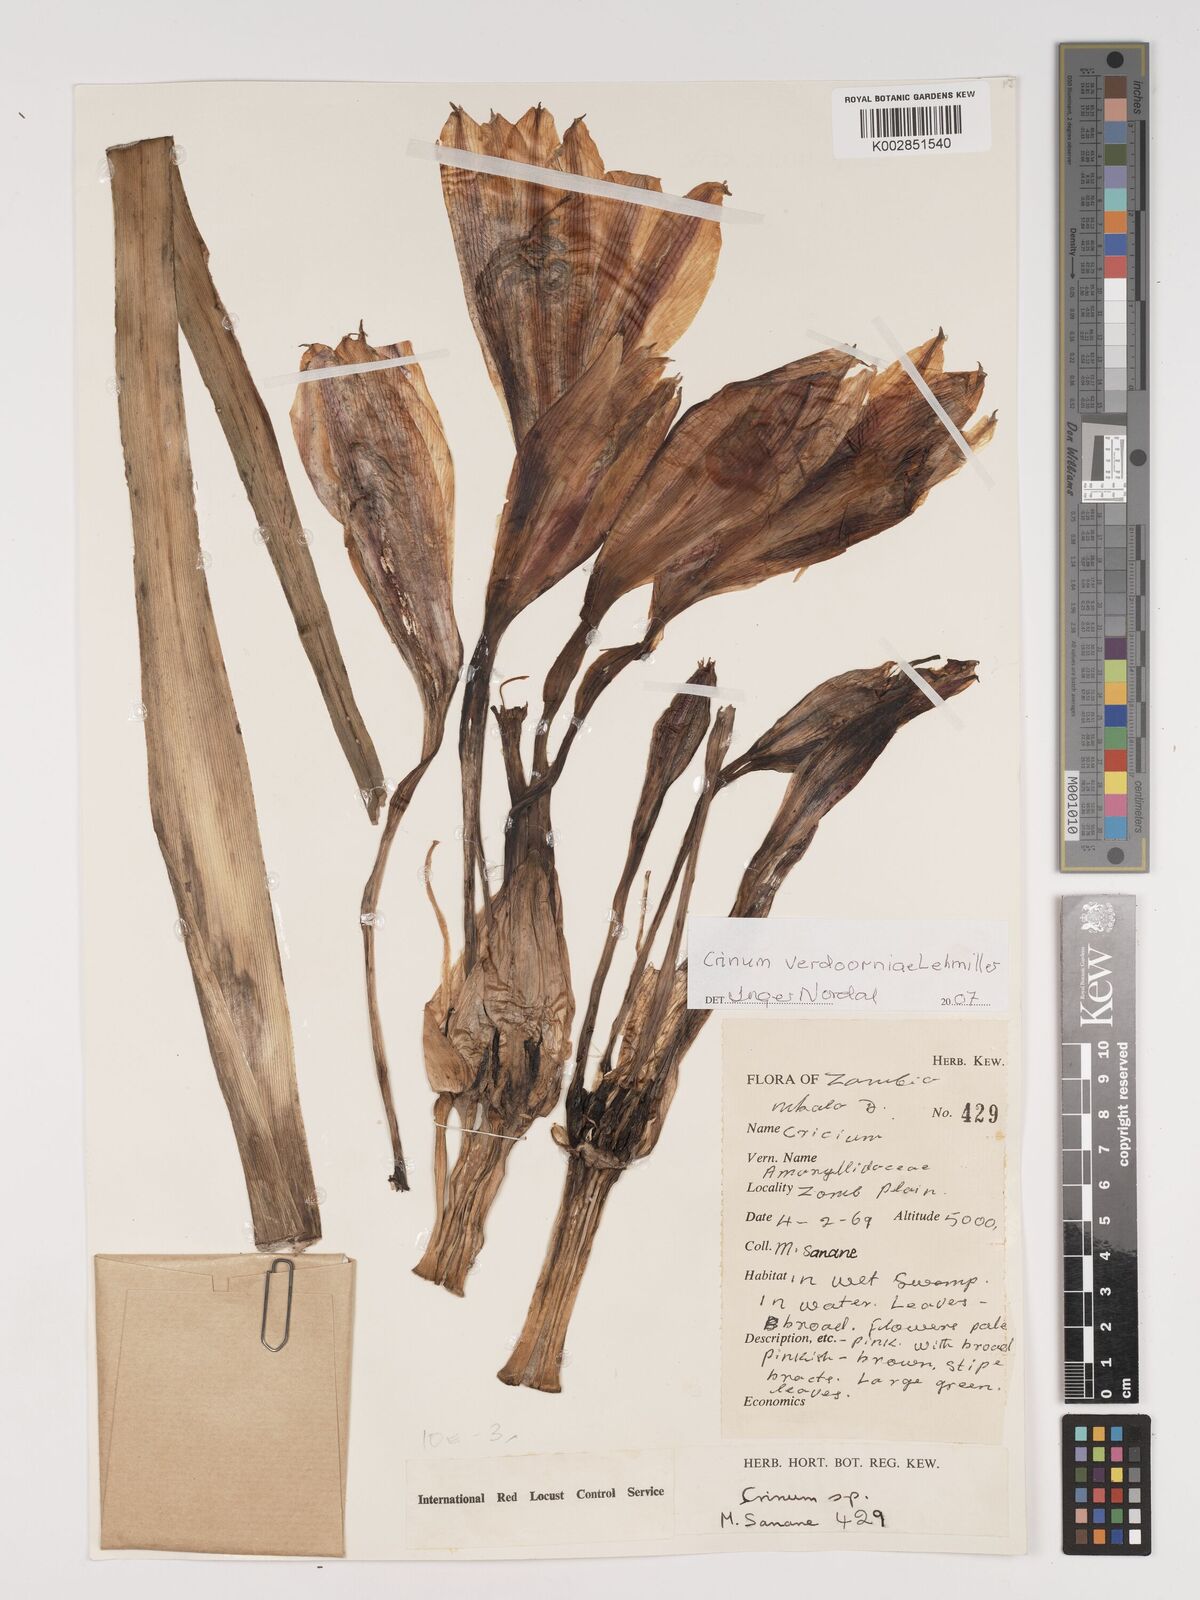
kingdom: Plantae
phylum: Tracheophyta
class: Liliopsida
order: Asparagales
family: Amaryllidaceae
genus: Crinum
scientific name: Crinum verdoorniae
